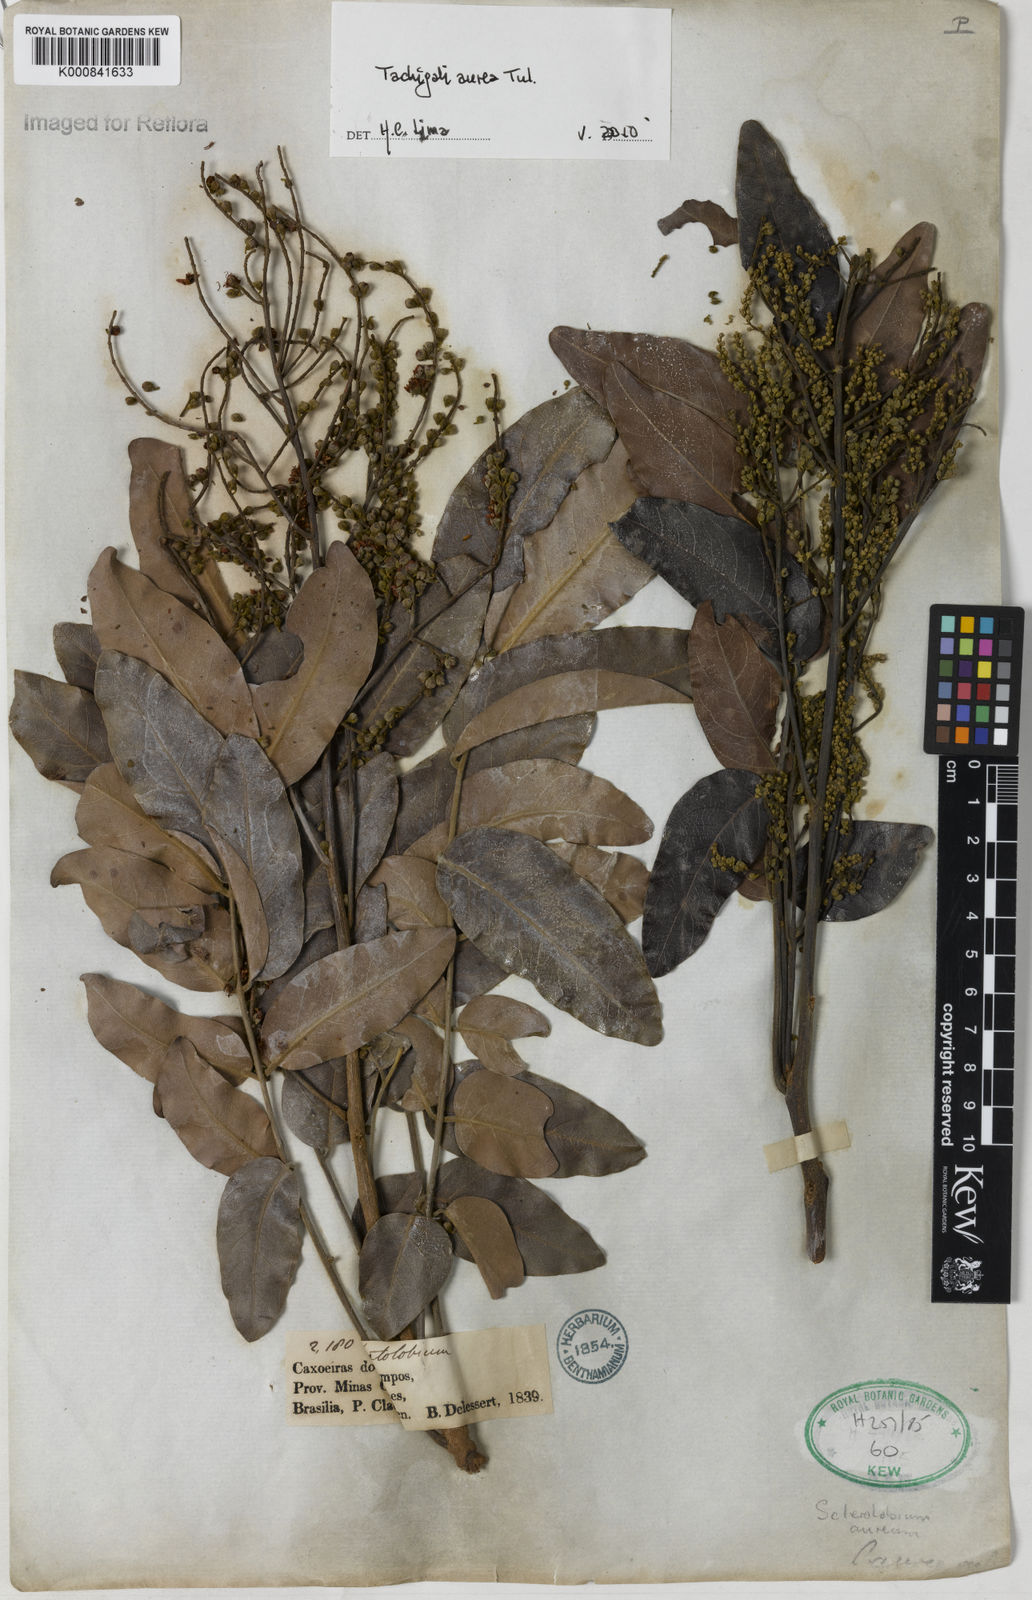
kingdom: Plantae
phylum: Tracheophyta
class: Magnoliopsida
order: Fabales
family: Fabaceae
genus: Tachigali
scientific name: Tachigali aurea
